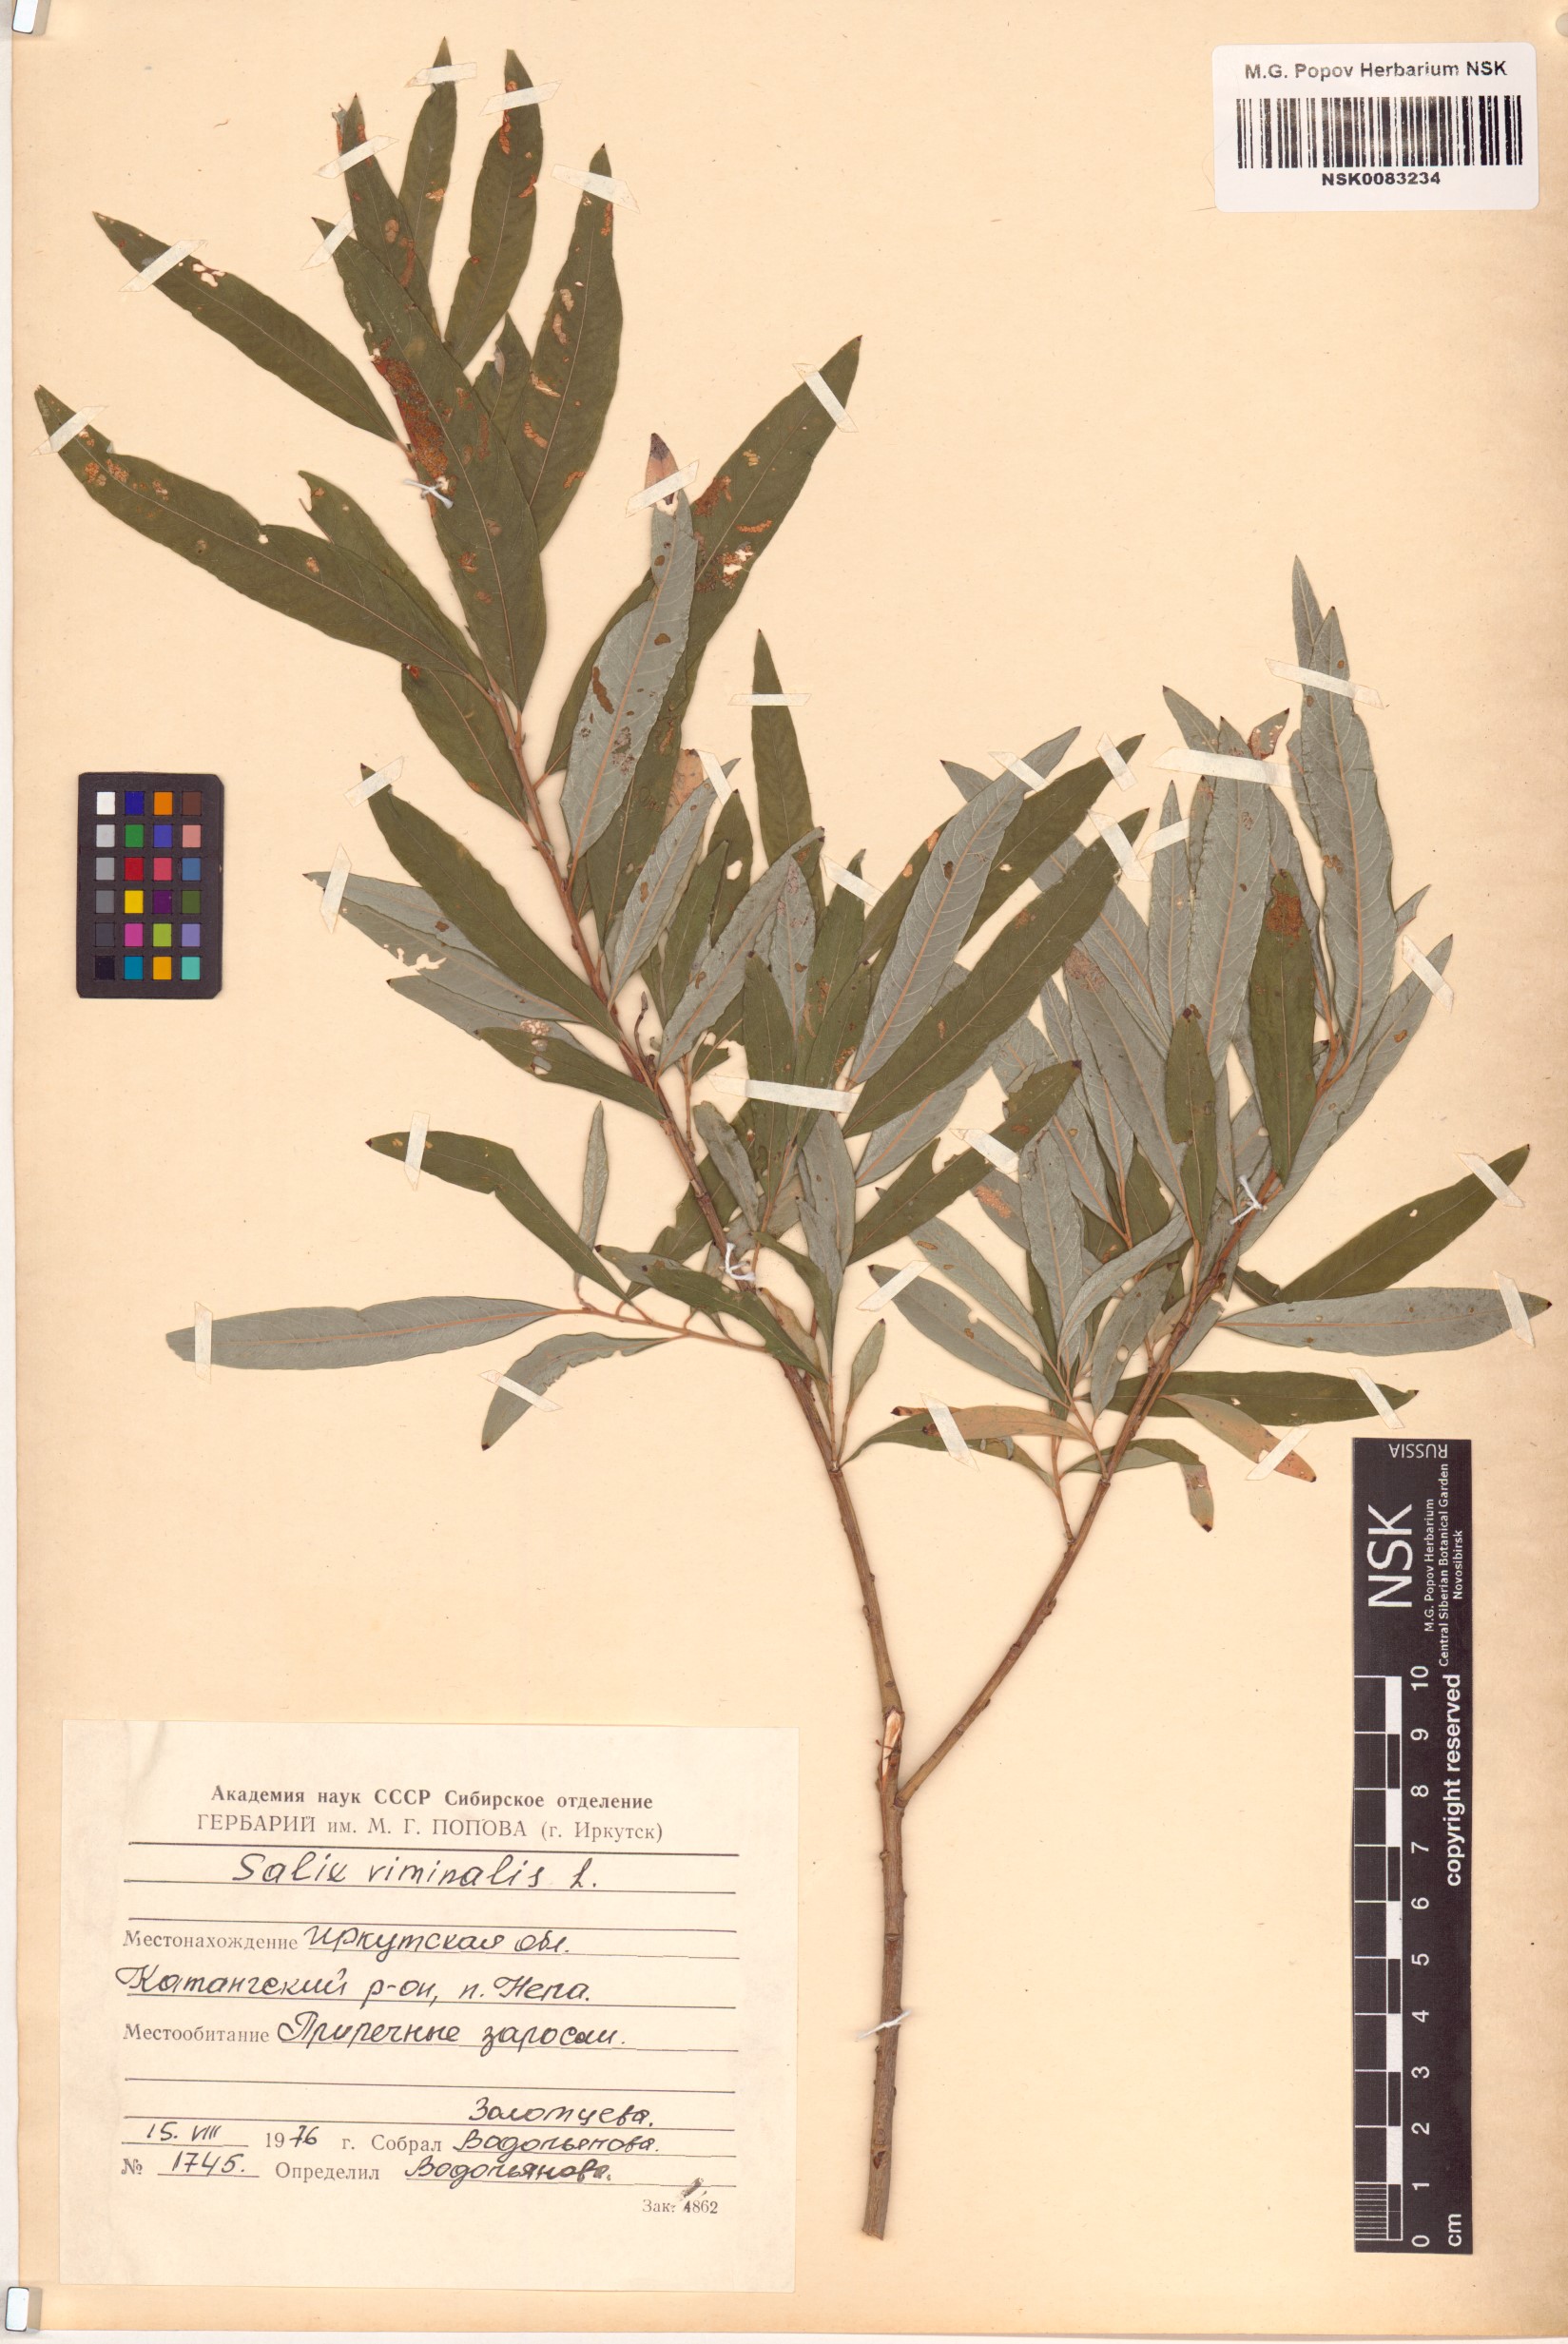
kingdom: Plantae
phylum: Tracheophyta
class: Magnoliopsida
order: Malpighiales
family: Salicaceae
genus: Salix
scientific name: Salix viminalis
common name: Osier
